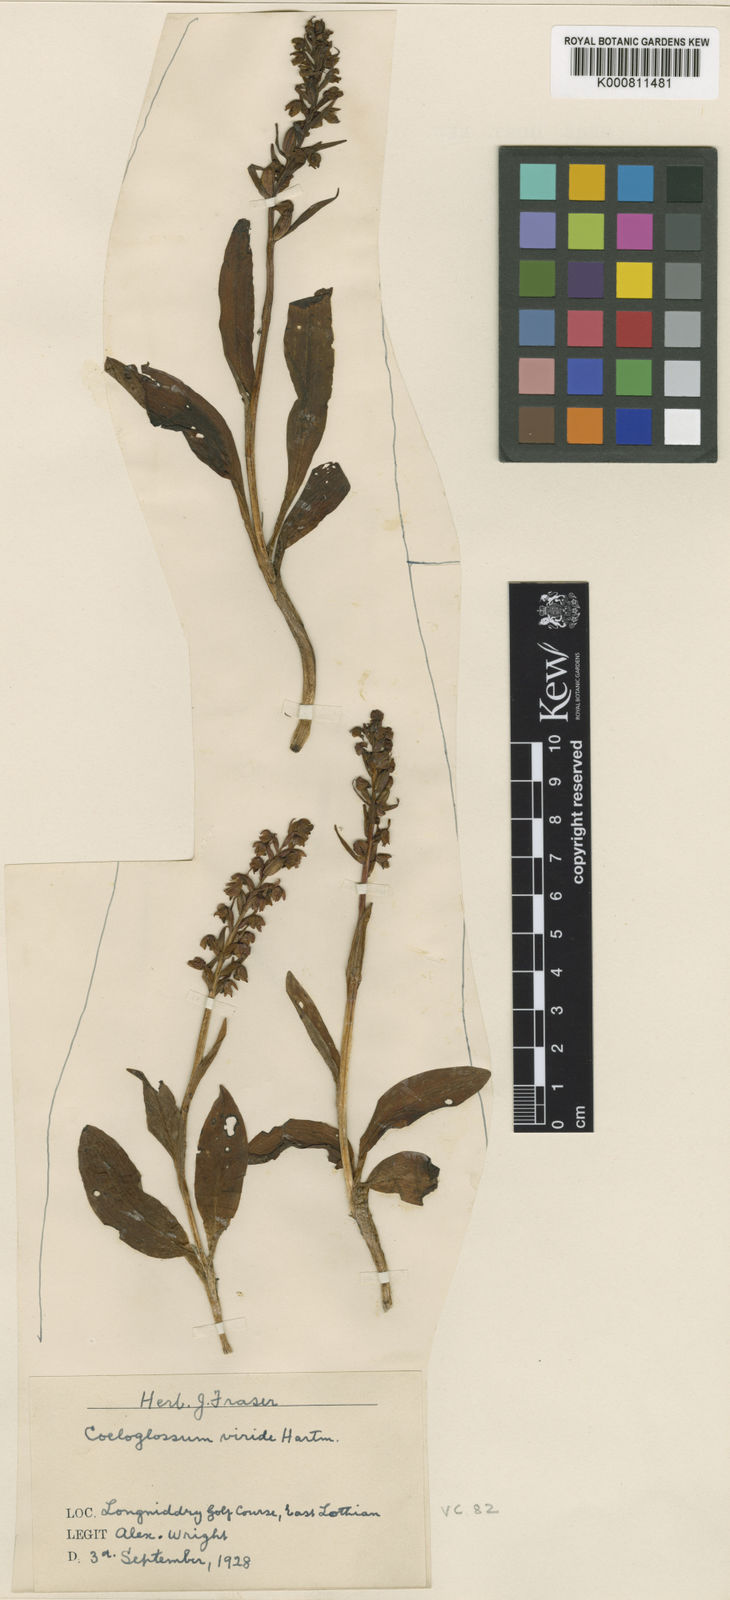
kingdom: Plantae
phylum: Tracheophyta
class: Liliopsida
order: Asparagales
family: Orchidaceae
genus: Dactylorhiza
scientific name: Dactylorhiza viridis
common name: Longbract frog orchid
